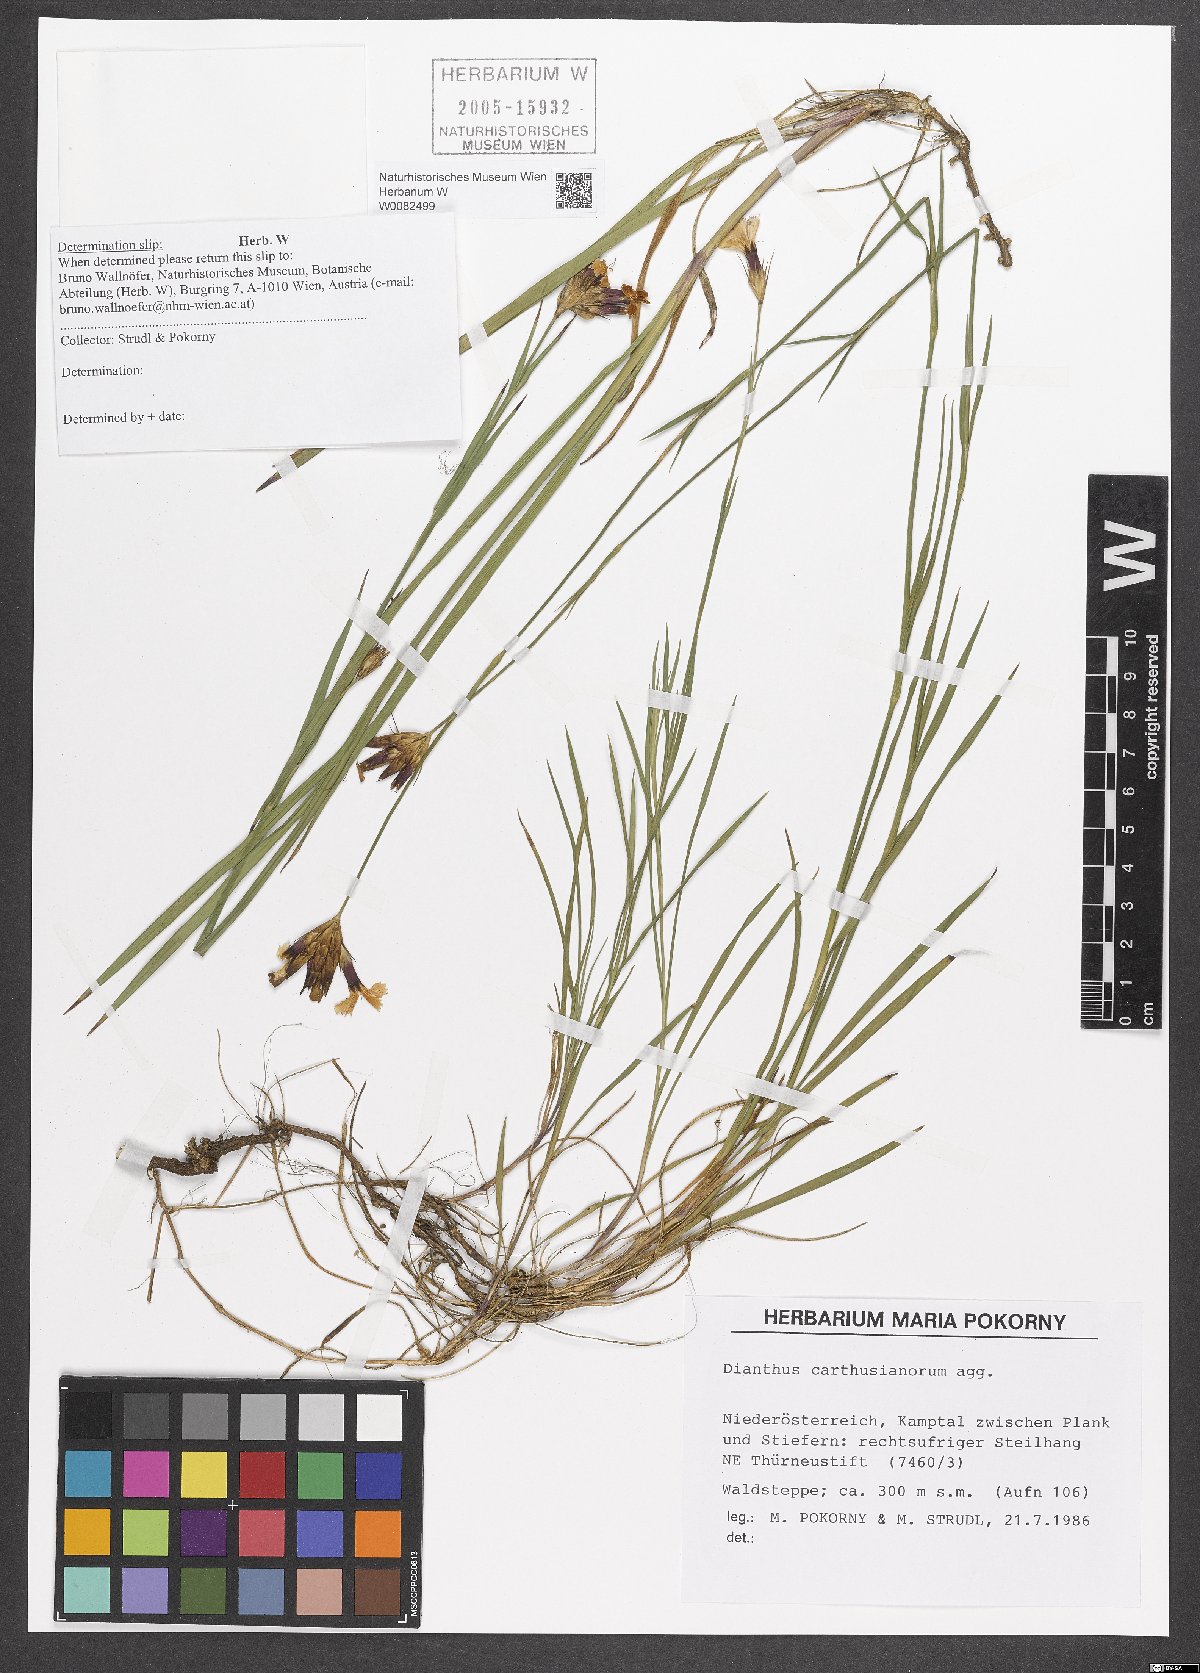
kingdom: Plantae
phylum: Tracheophyta
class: Magnoliopsida
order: Caryophyllales
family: Caryophyllaceae
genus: Dianthus
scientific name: Dianthus carthusianorum
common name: Carthusian pink
